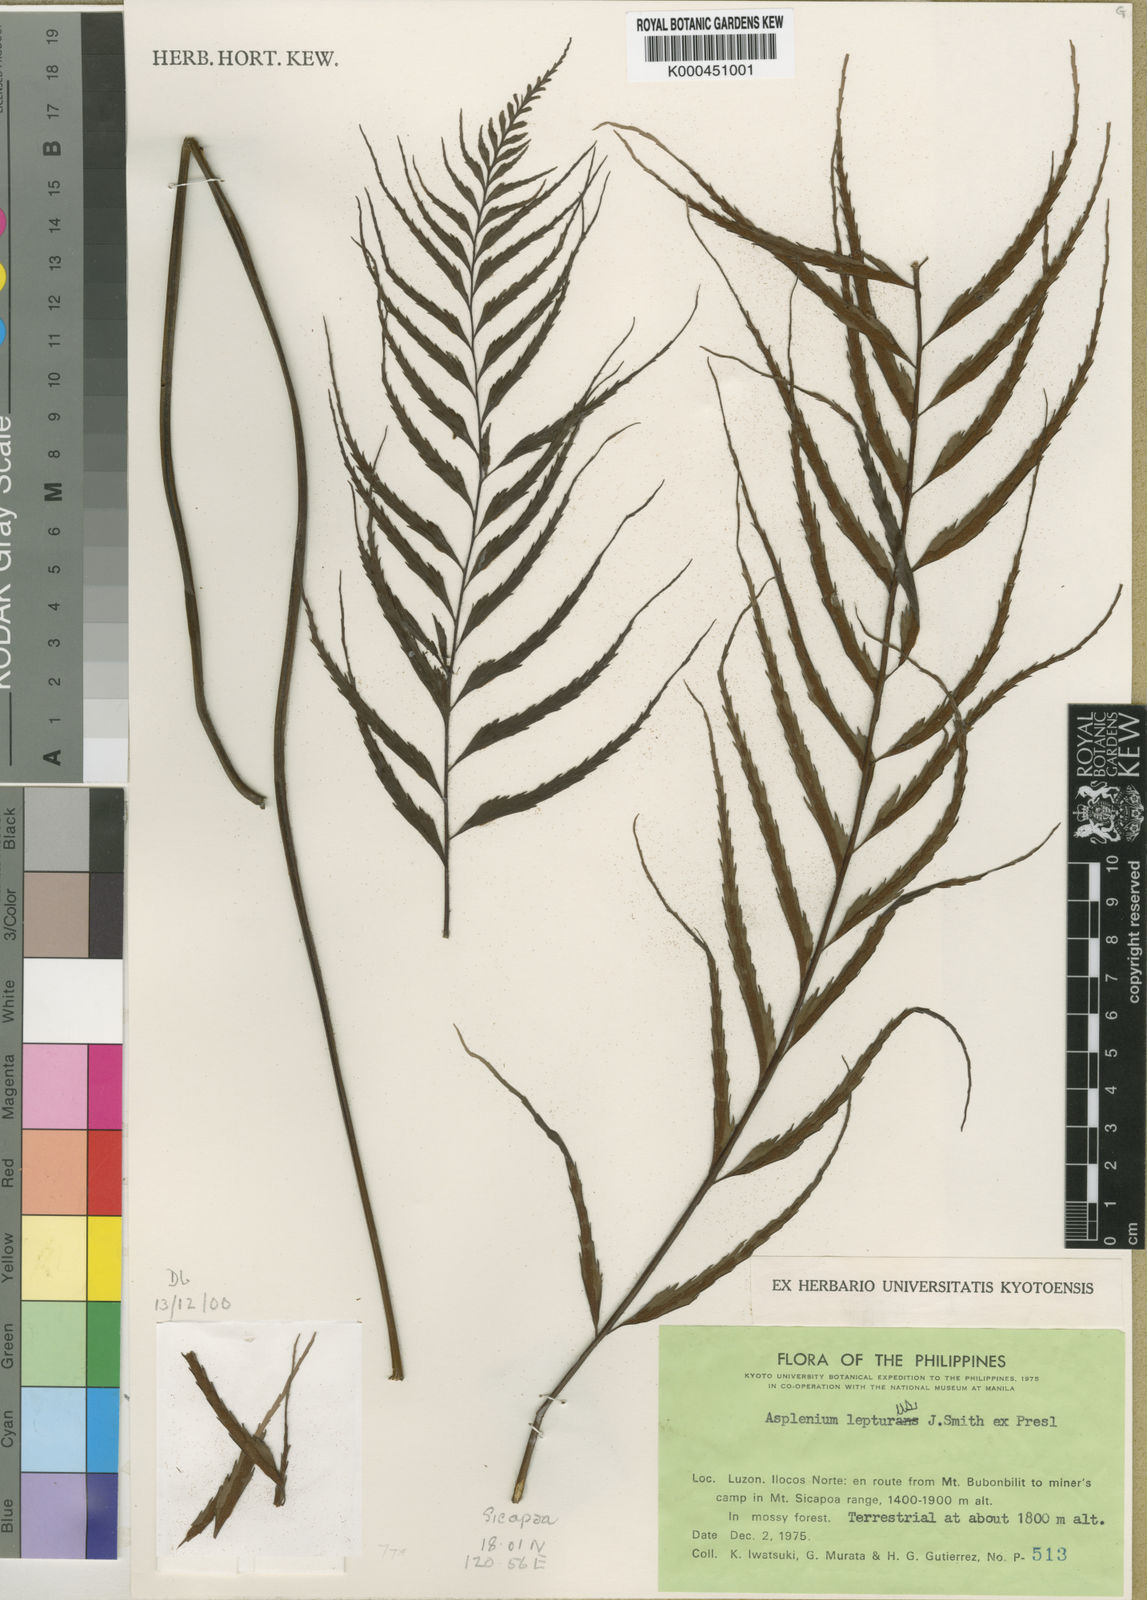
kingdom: Plantae
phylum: Tracheophyta
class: Polypodiopsida
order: Polypodiales
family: Aspleniaceae
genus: Asplenium
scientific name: Asplenium lepturus
